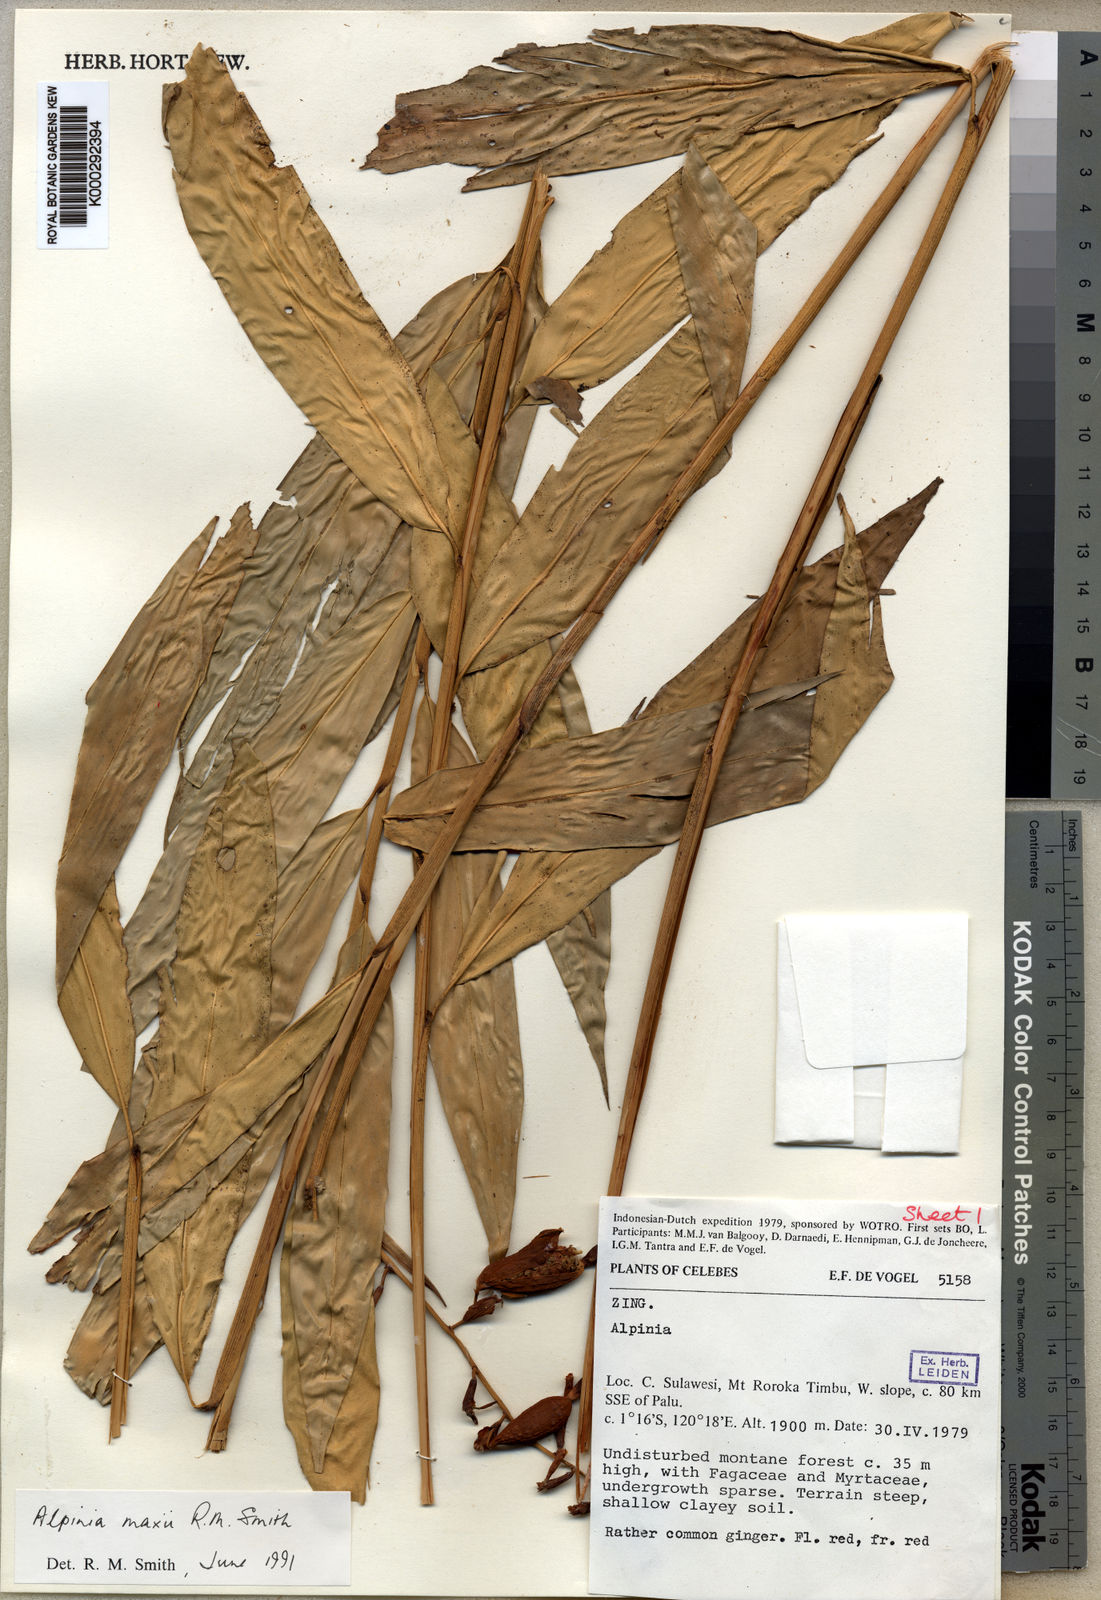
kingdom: Plantae
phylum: Tracheophyta
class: Liliopsida
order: Zingiberales
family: Zingiberaceae
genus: Alpinia
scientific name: Alpinia maxii
